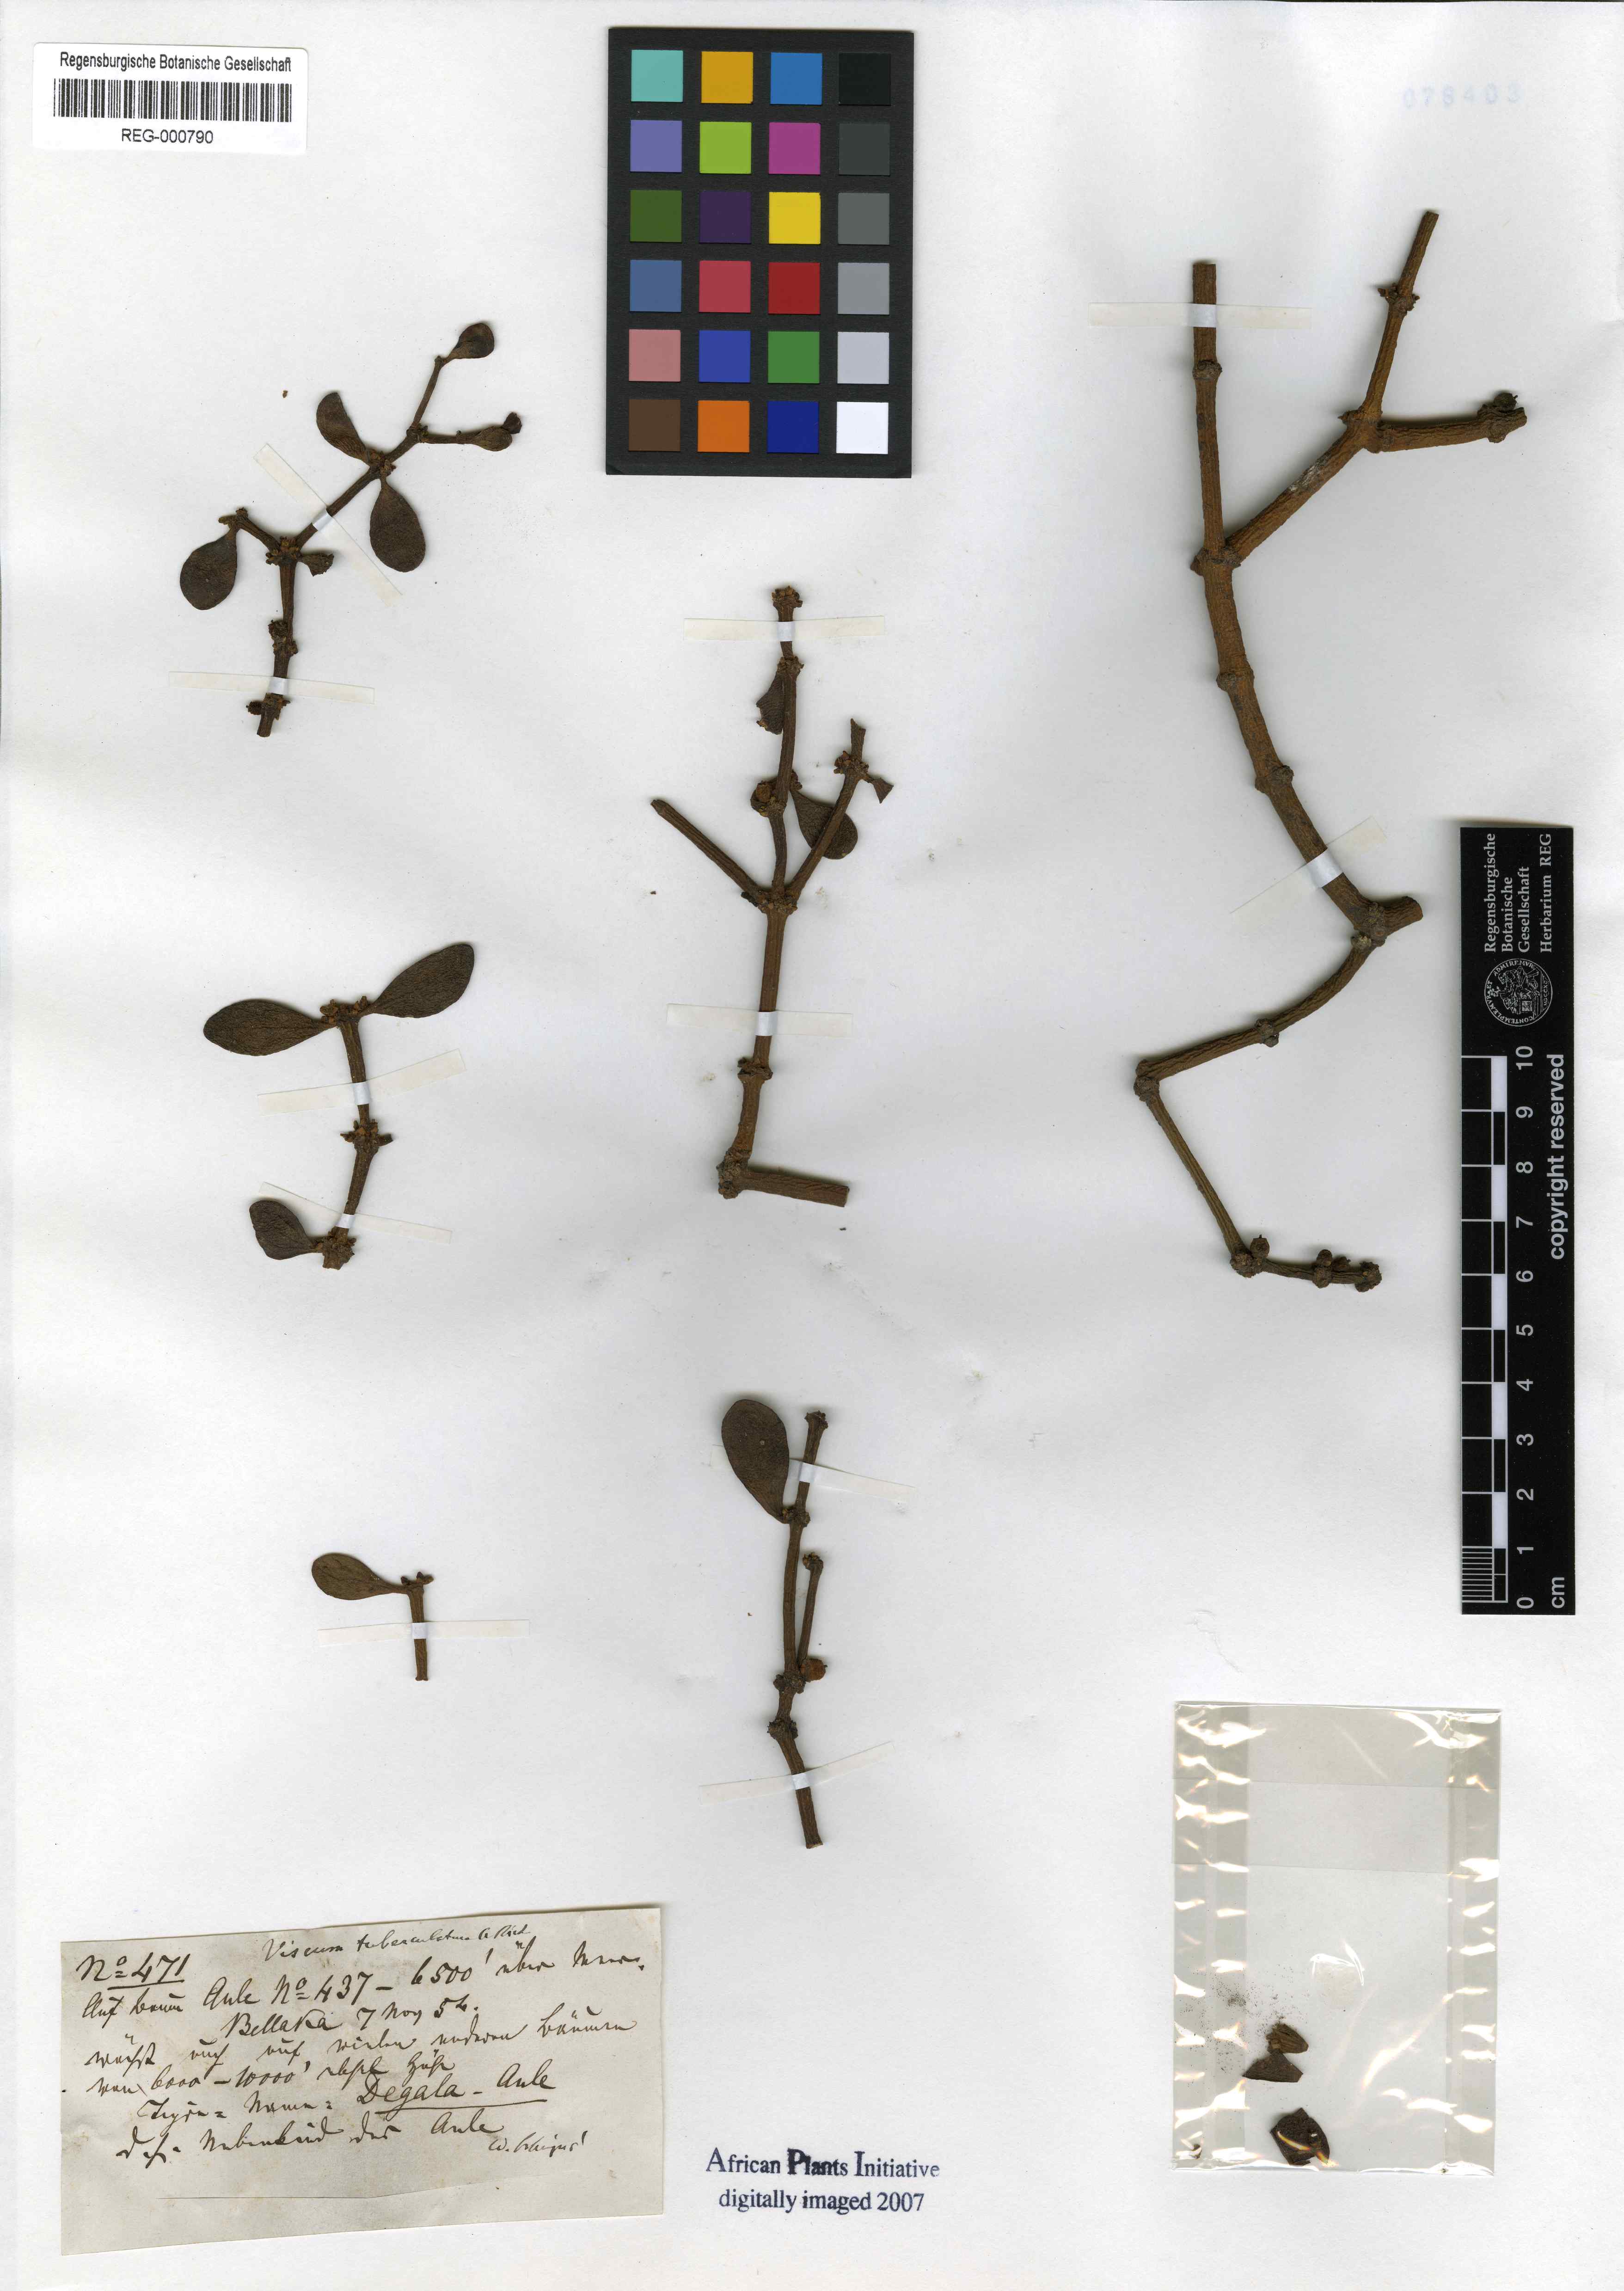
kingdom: Plantae
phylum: Tracheophyta
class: Magnoliopsida
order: Santalales
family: Viscaceae
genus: Viscum
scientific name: Viscum tuberculatum
